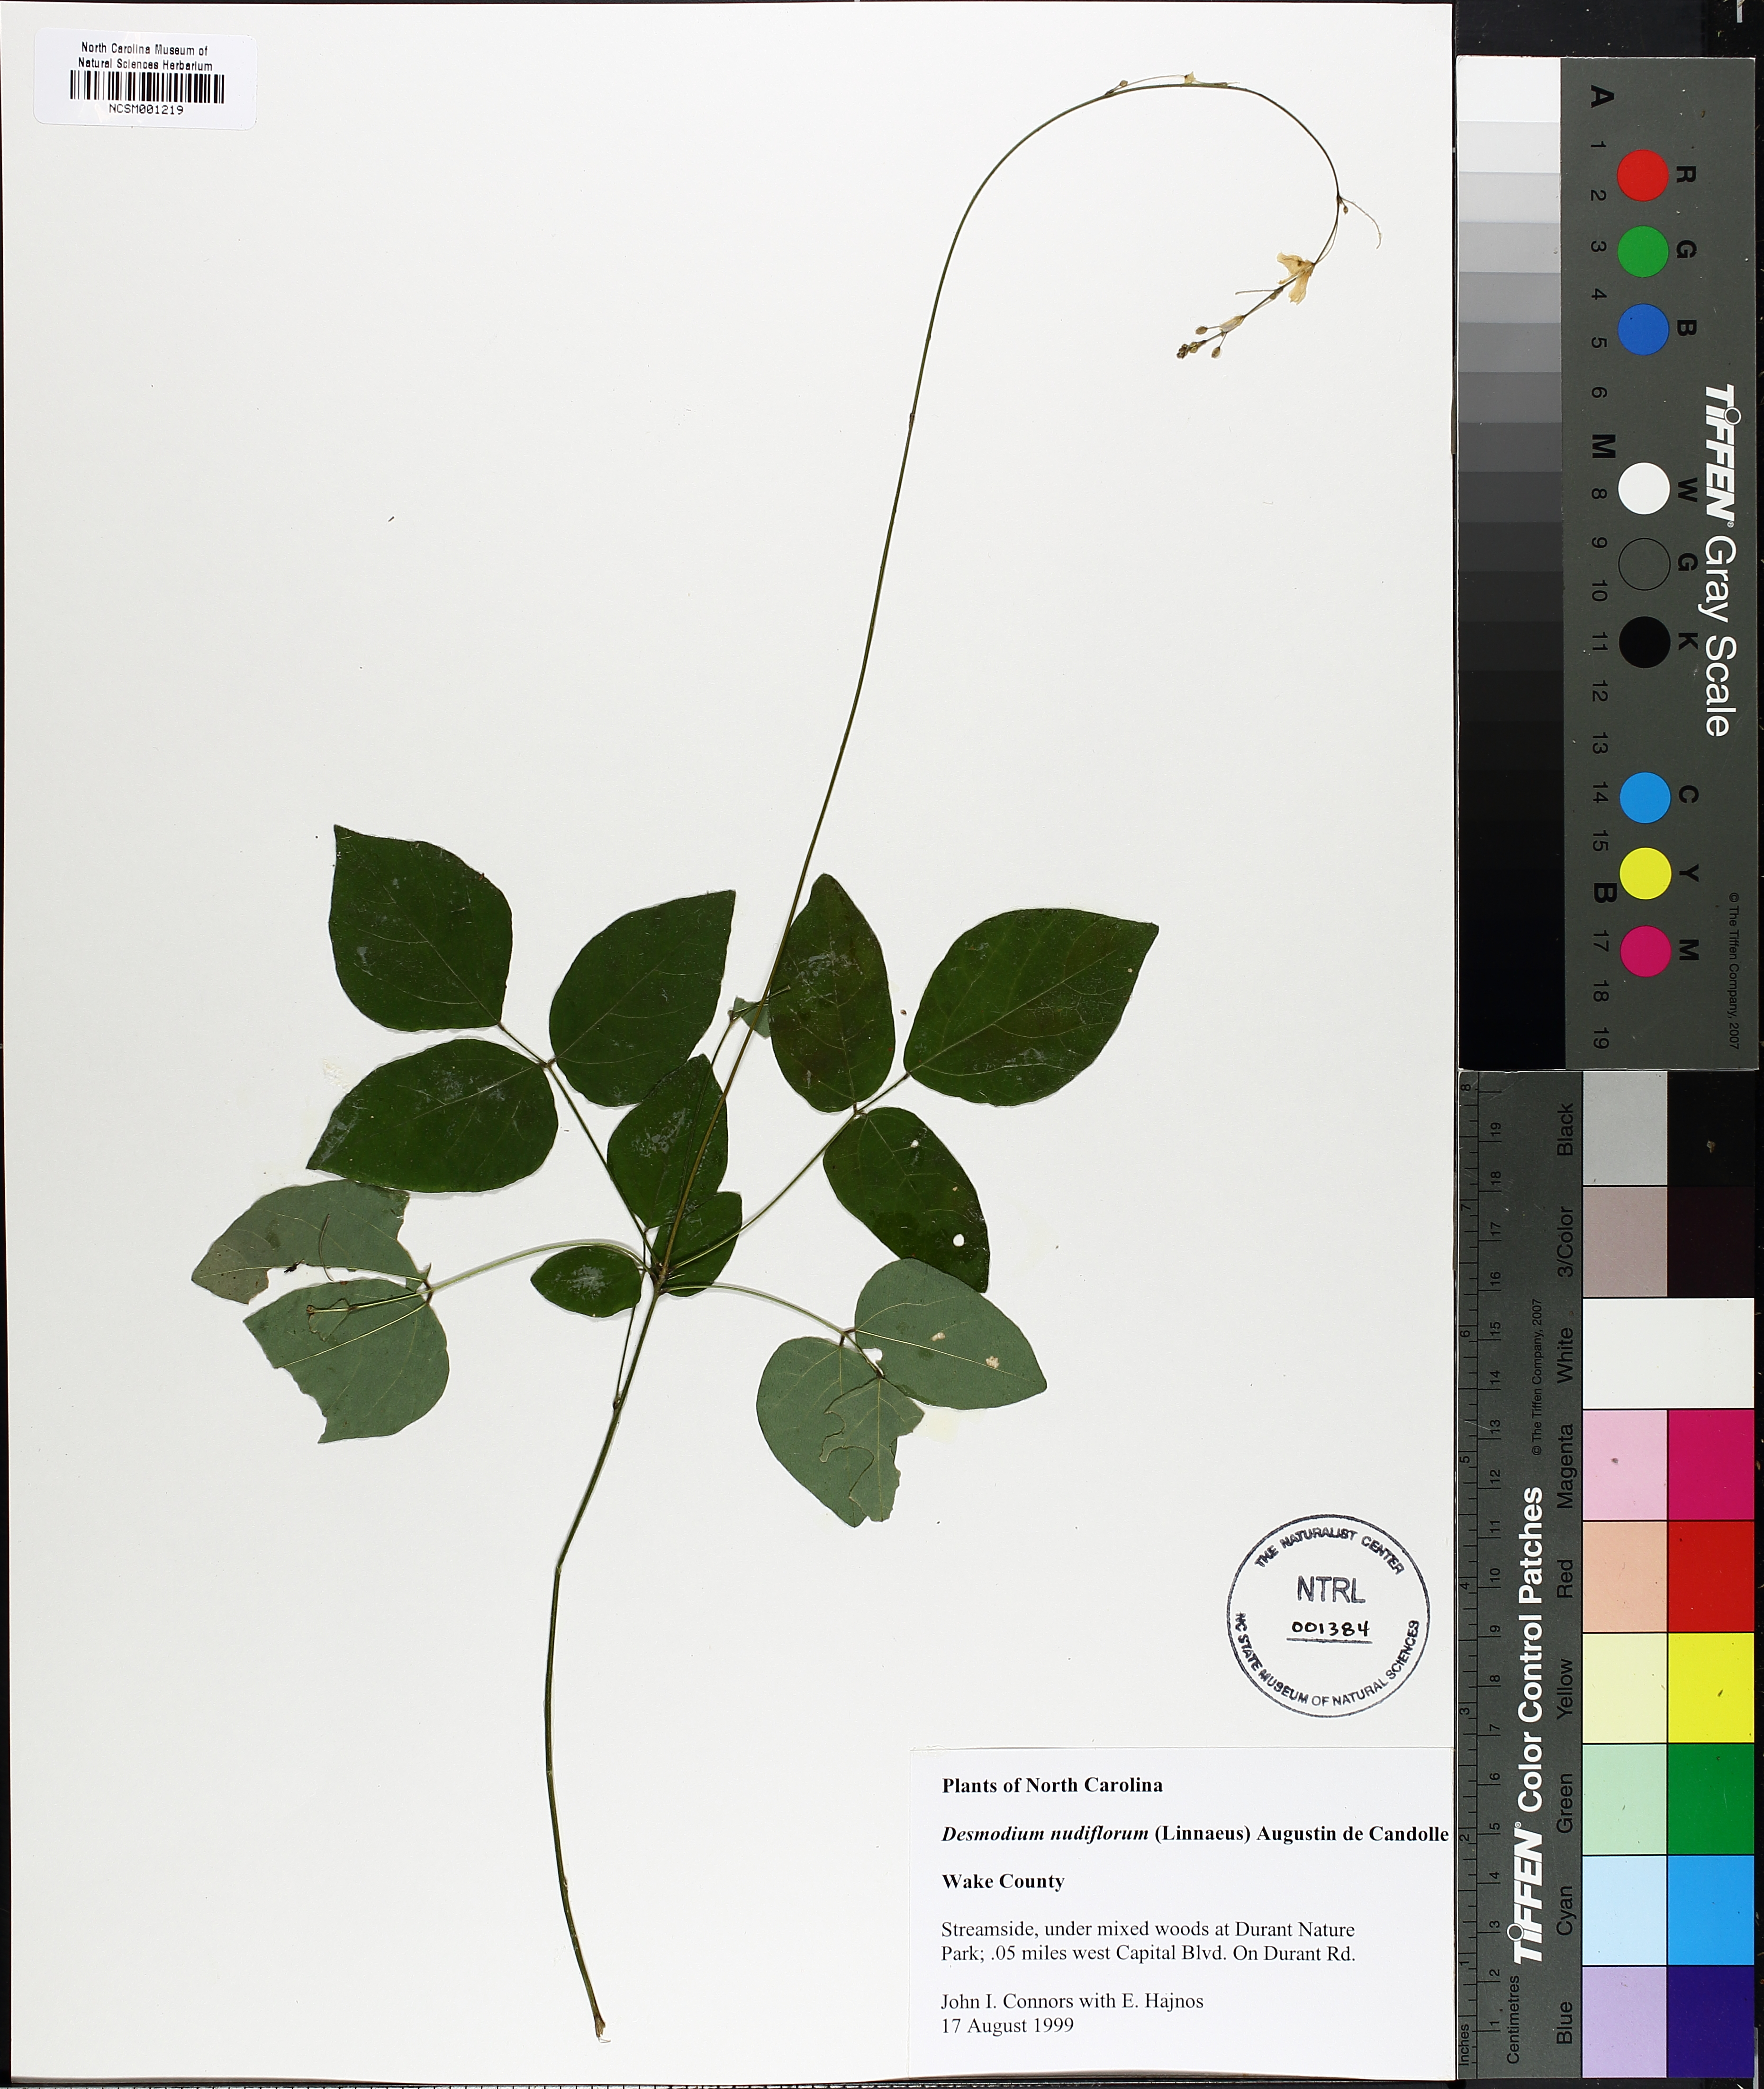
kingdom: Plantae
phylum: Tracheophyta
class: Magnoliopsida
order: Fabales
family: Fabaceae
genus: Hylodesmum
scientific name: Hylodesmum nudiflorum
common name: Bare-stemmed tick-trefoil
